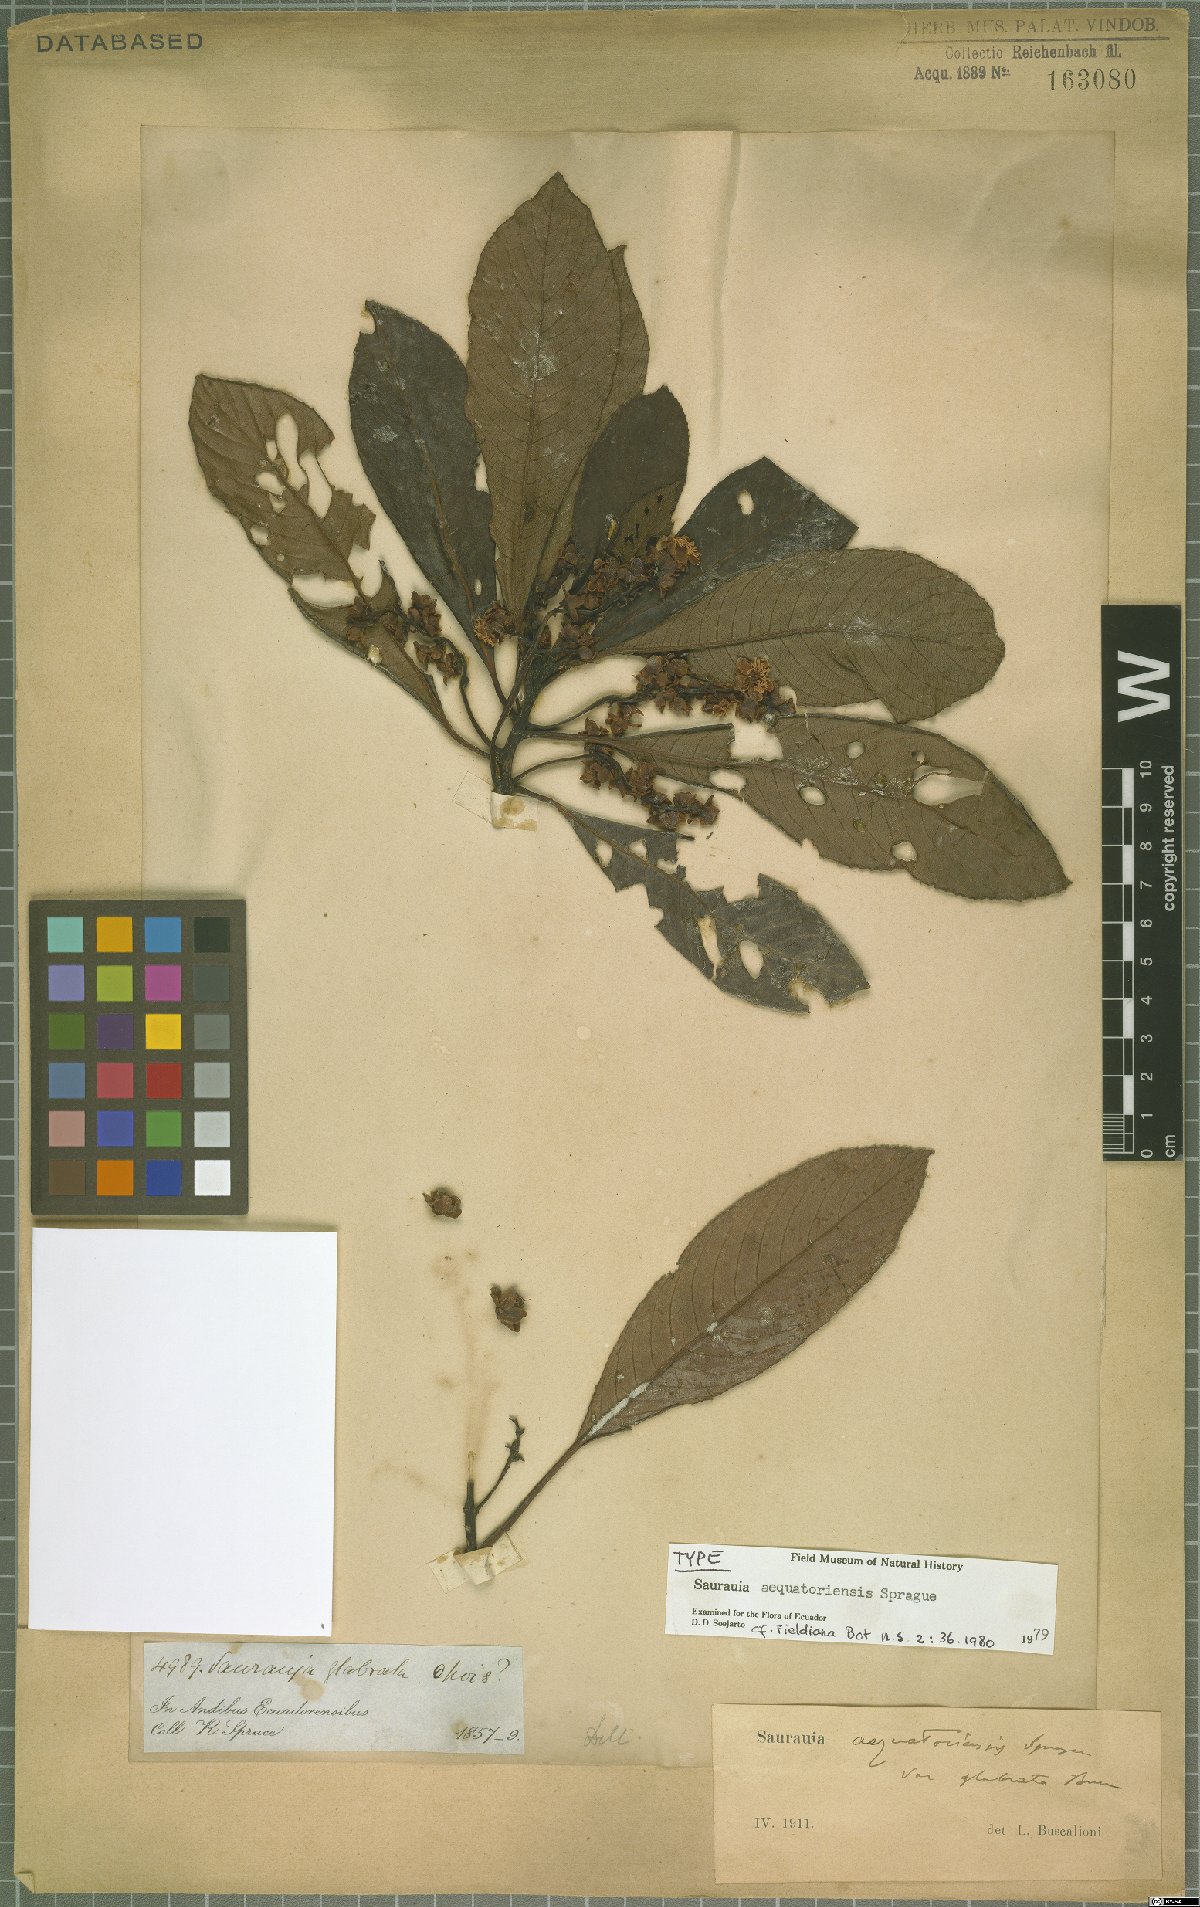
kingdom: Plantae
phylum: Tracheophyta
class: Magnoliopsida
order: Ericales
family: Actinidiaceae
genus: Saurauia
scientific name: Saurauia aequatoriensis
